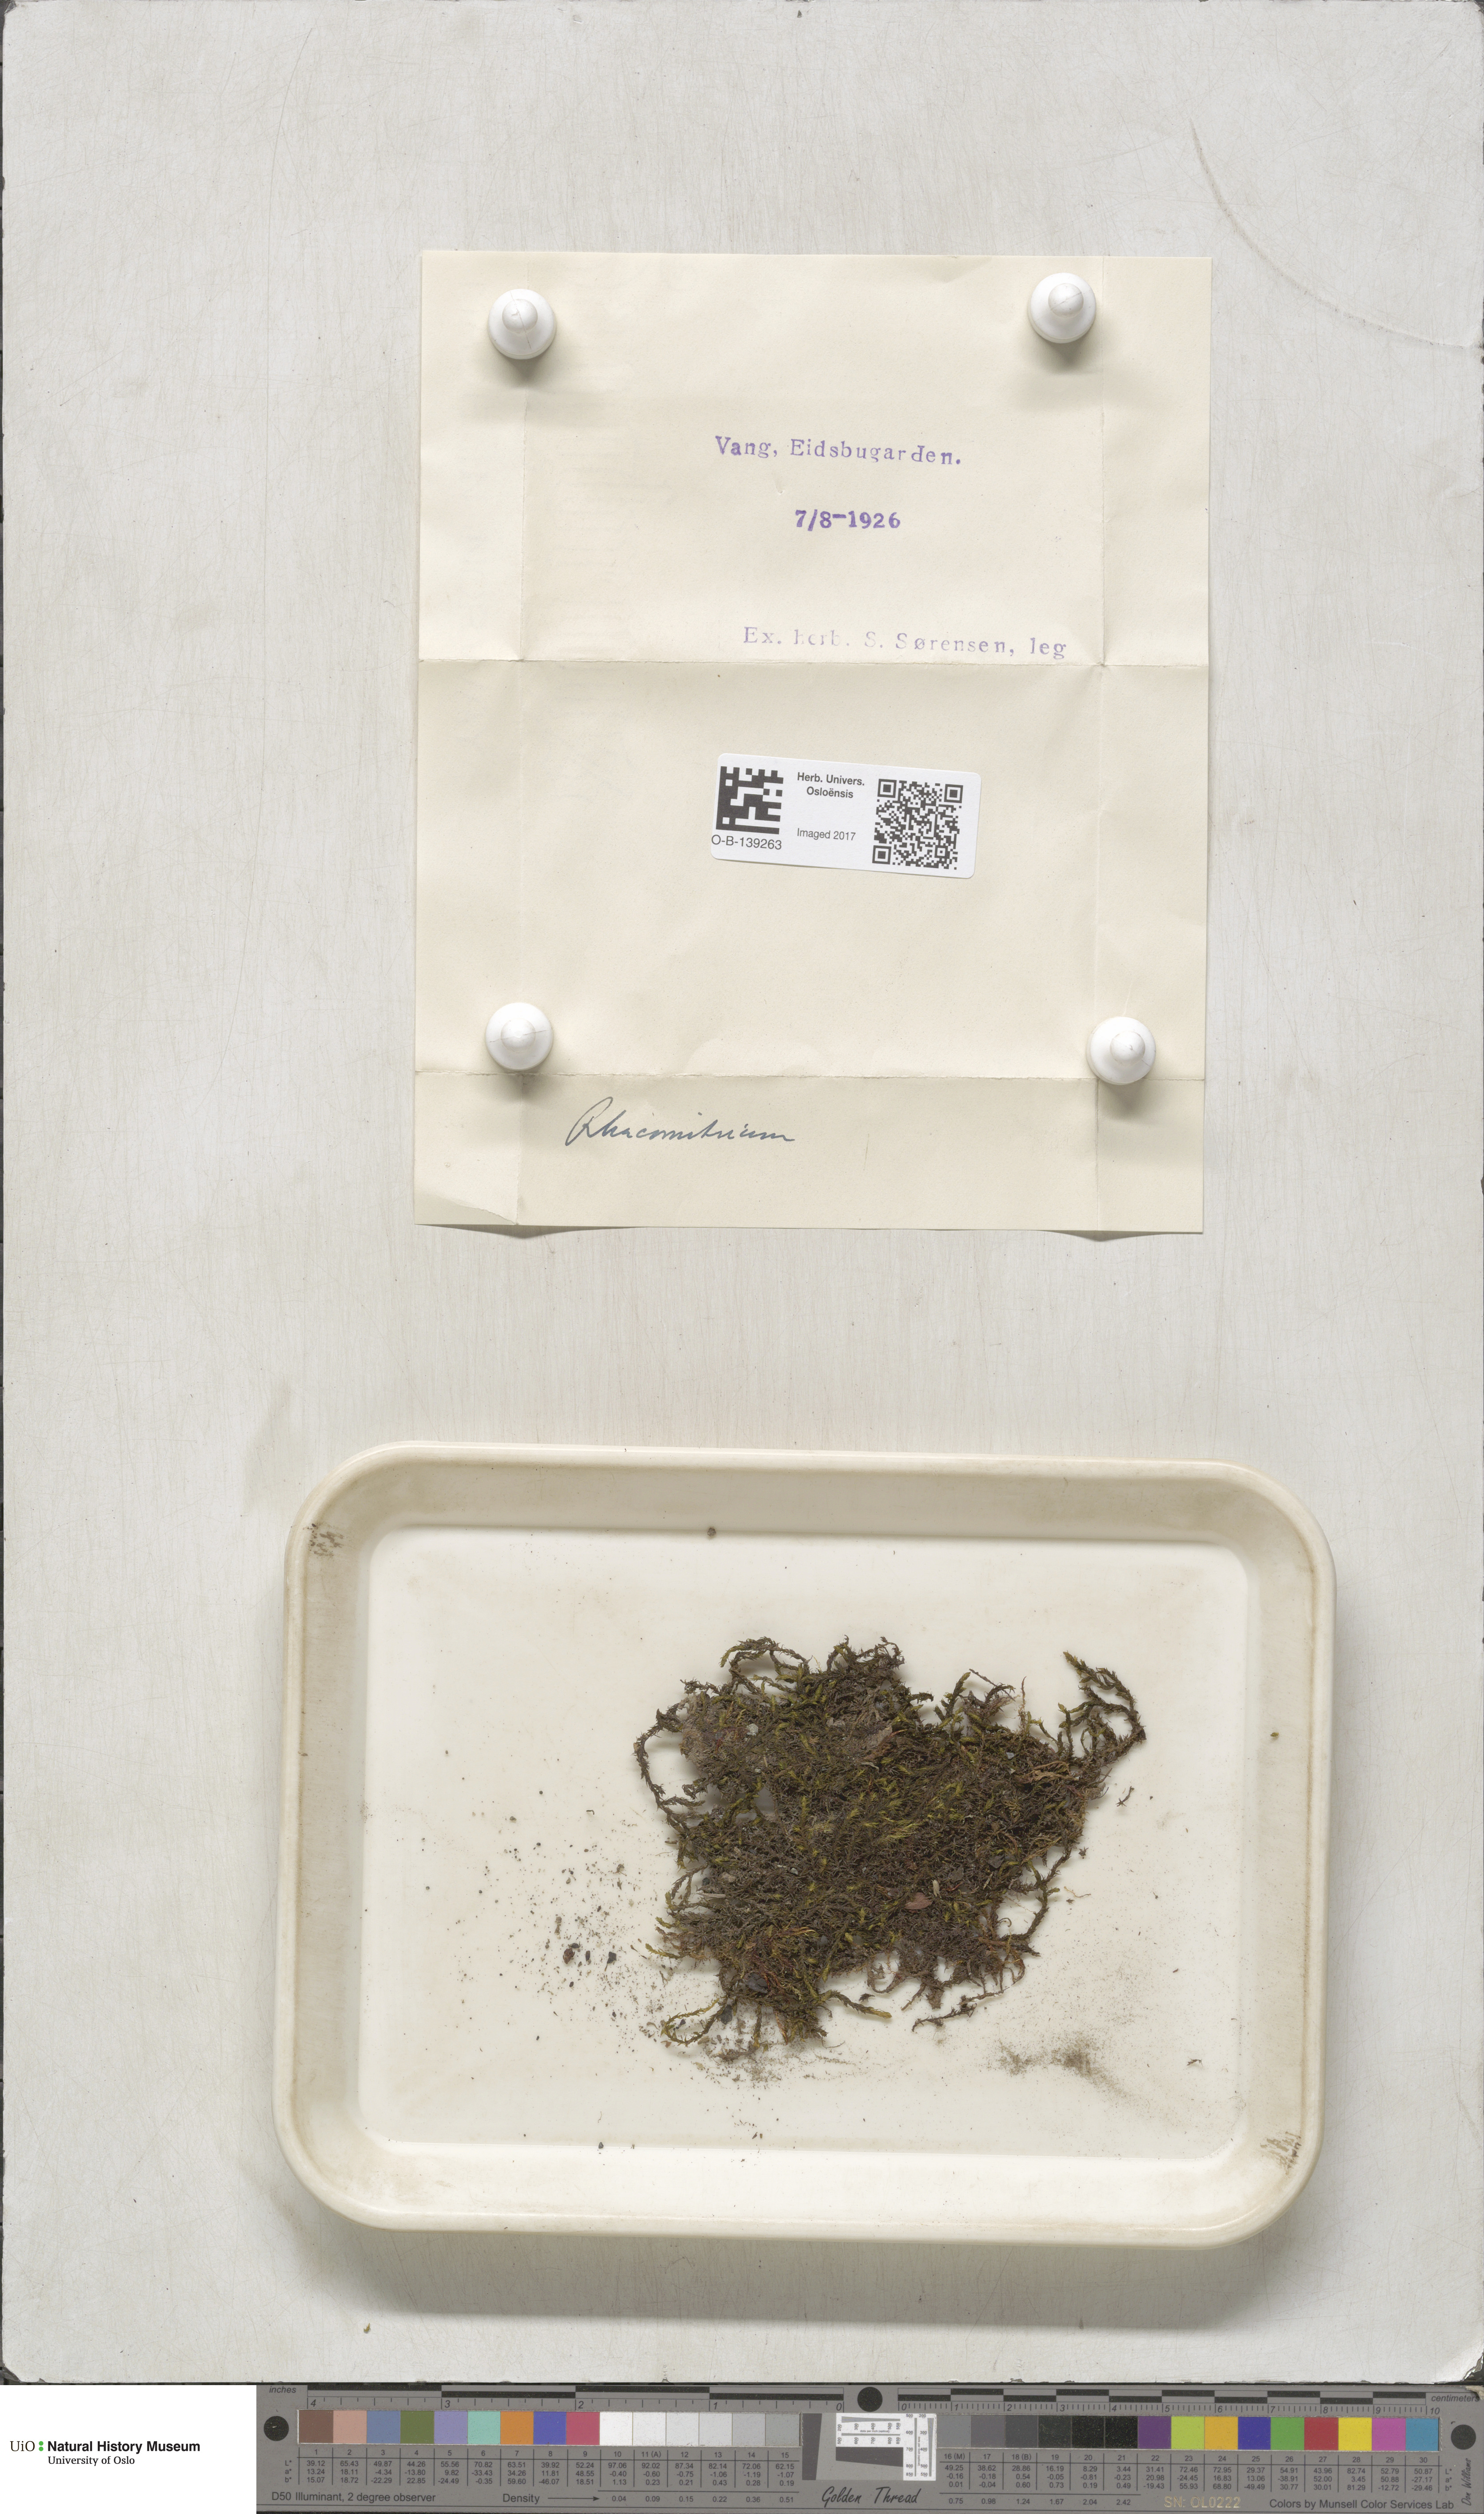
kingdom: Plantae
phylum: Bryophyta
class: Bryopsida
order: Grimmiales
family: Grimmiaceae
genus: Racomitrium
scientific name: Racomitrium
